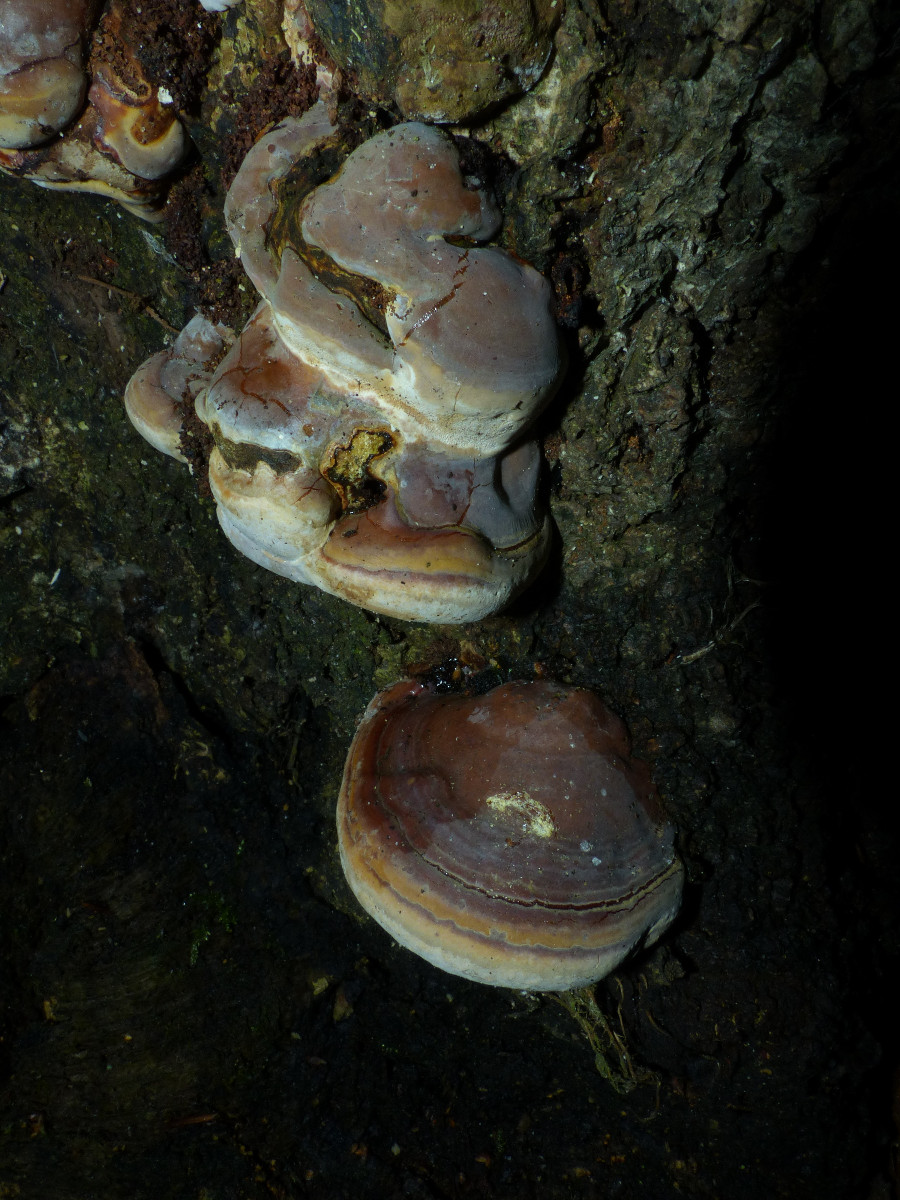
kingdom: Fungi
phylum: Basidiomycota
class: Agaricomycetes
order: Polyporales
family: Polyporaceae
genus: Ganoderma
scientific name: Ganoderma pfeifferi
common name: kobberrød lakporesvamp
